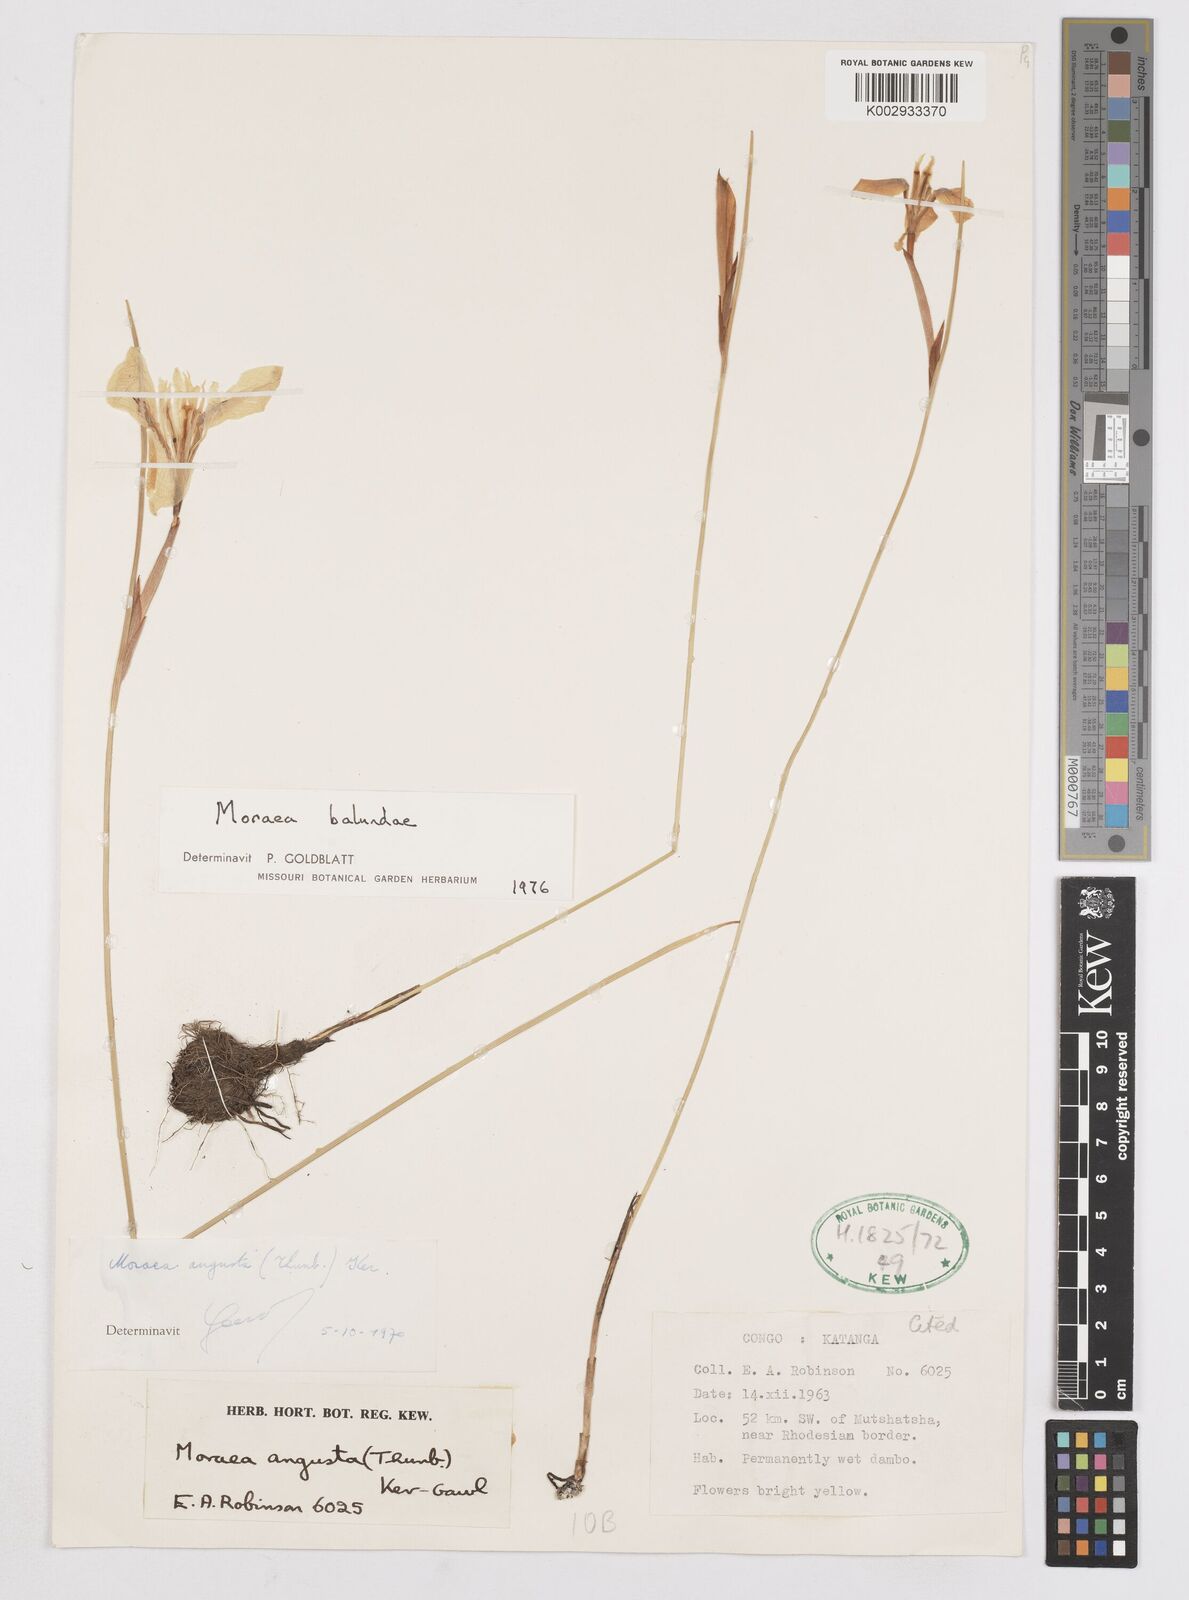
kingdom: Plantae
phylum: Tracheophyta
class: Liliopsida
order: Asparagales
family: Iridaceae
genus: Moraea
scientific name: Moraea balundana
